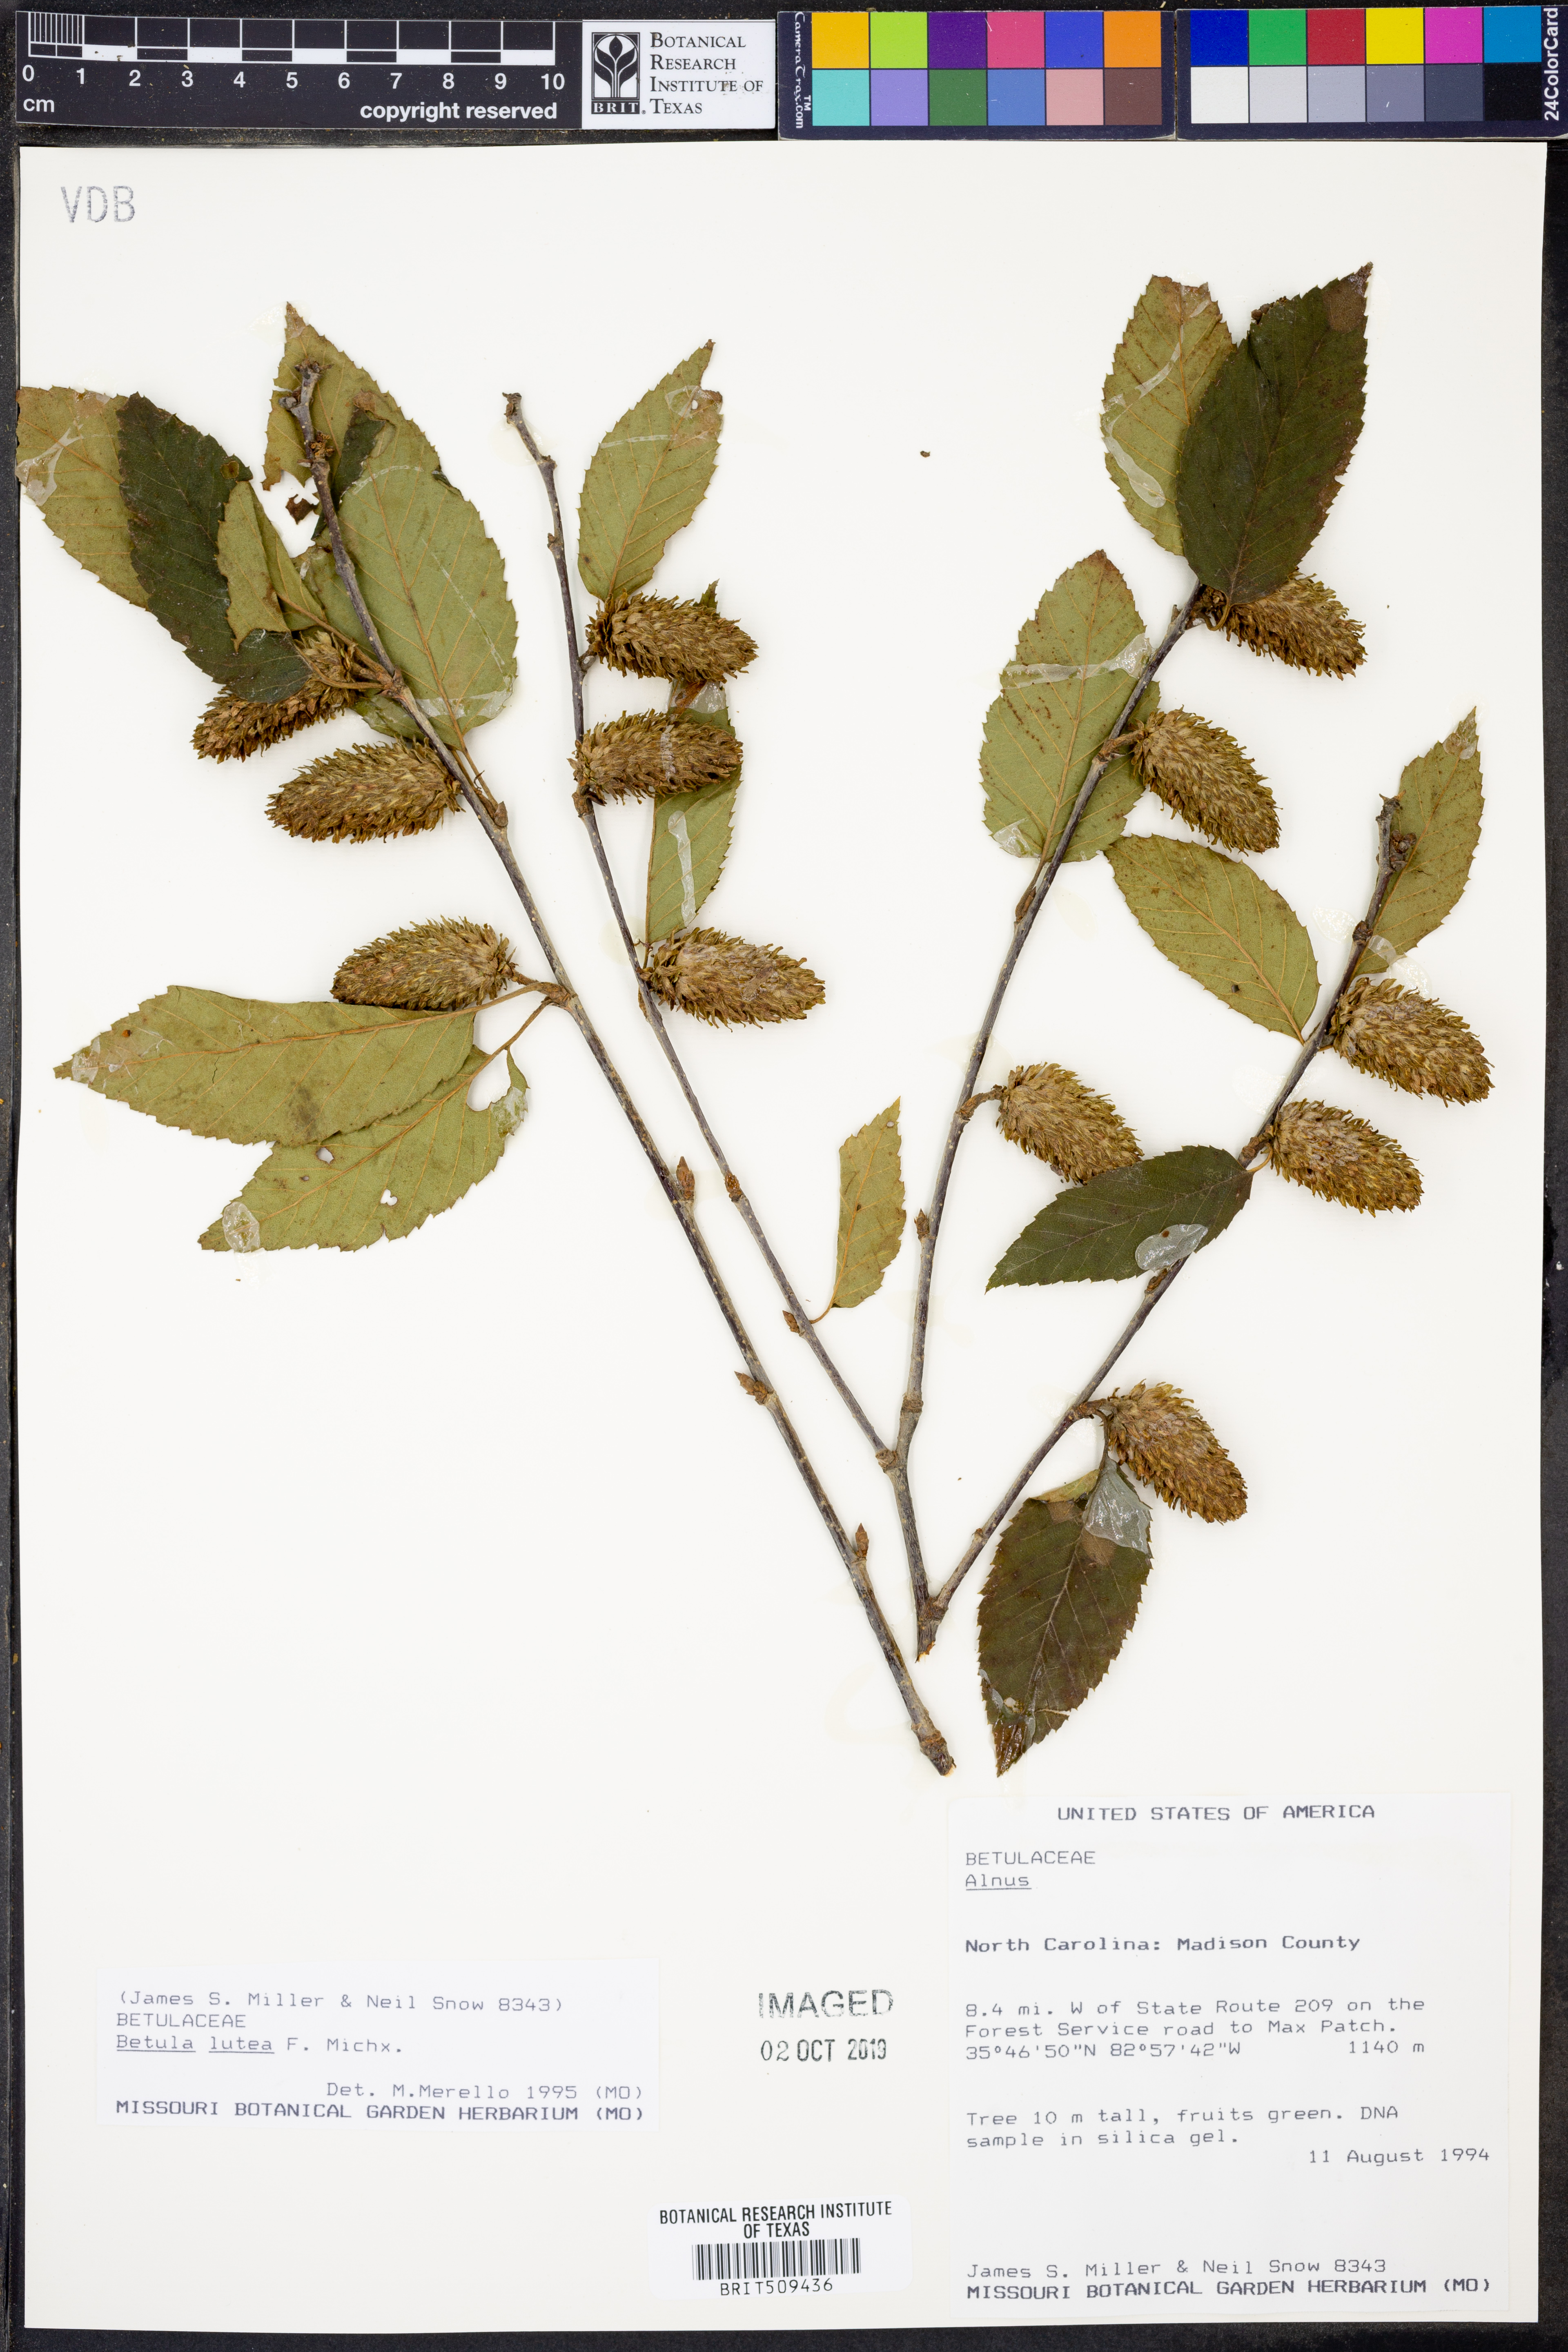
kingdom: Plantae
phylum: Tracheophyta
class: Magnoliopsida
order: Fagales
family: Betulaceae
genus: Betula
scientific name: Betula alleghaniensis
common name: Yellow birch
